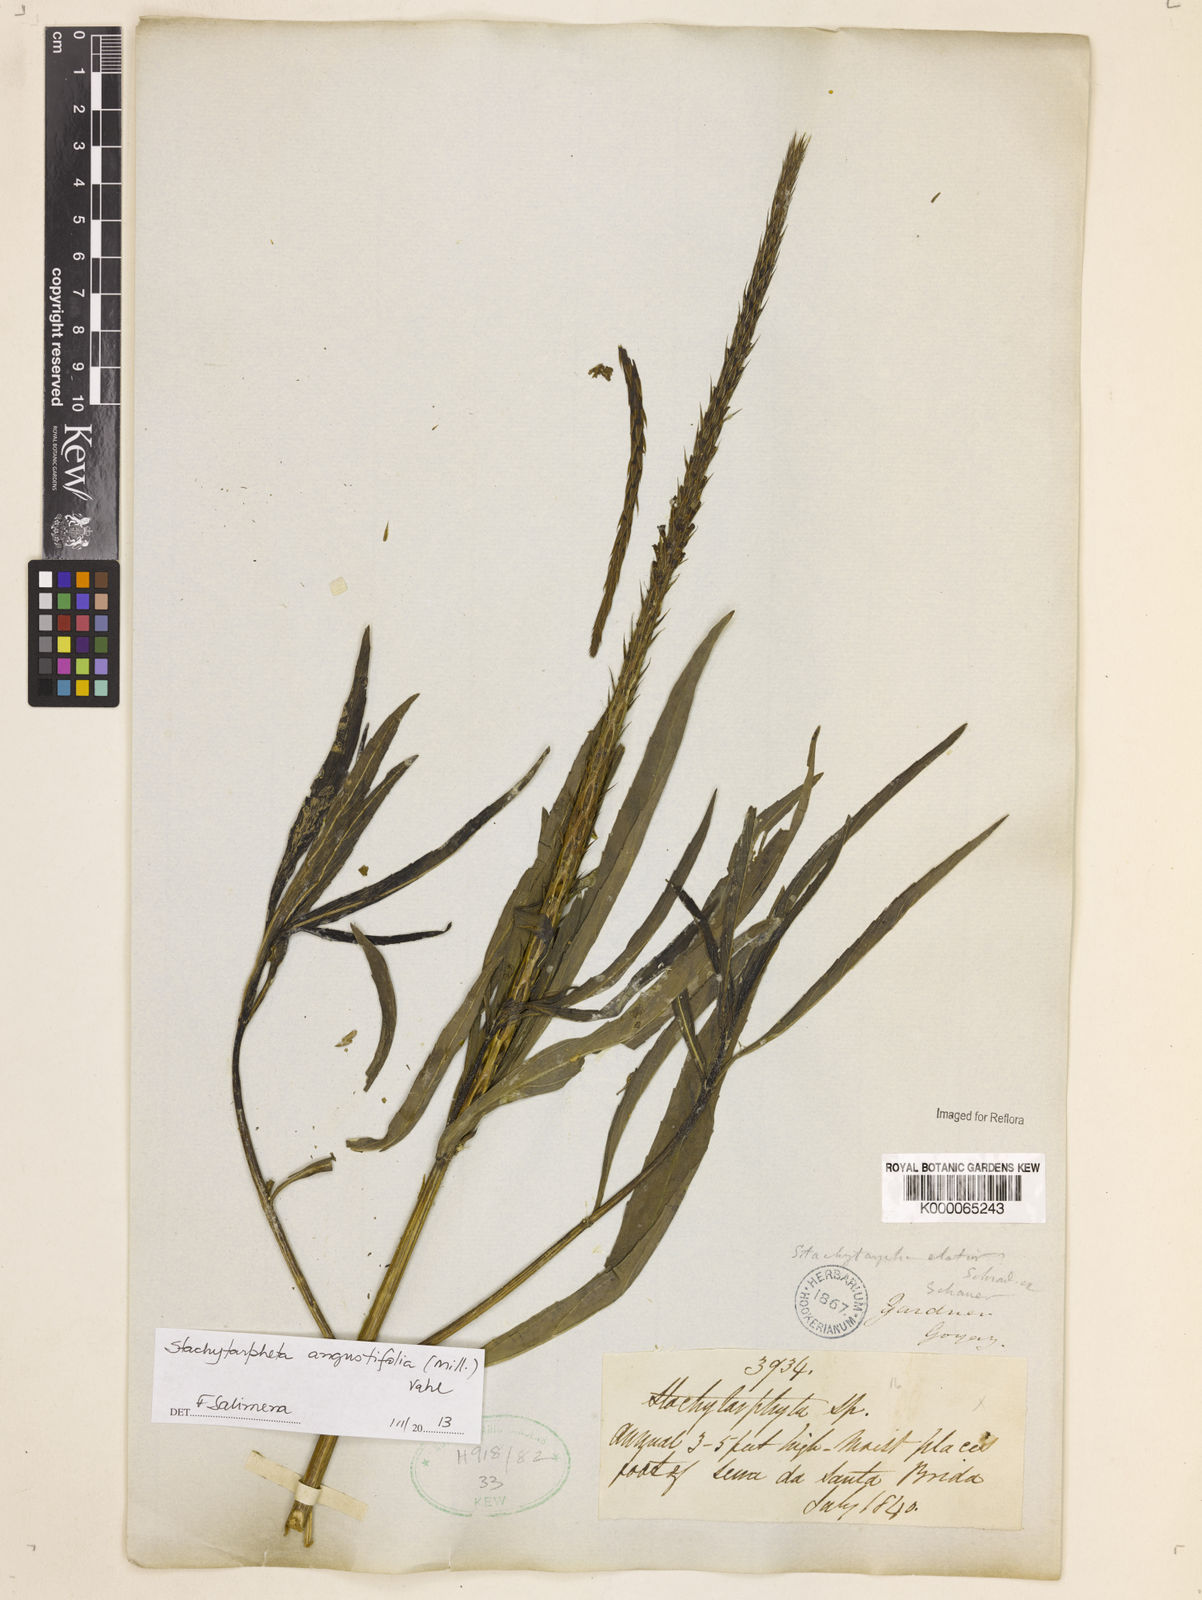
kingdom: Plantae
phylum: Tracheophyta
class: Magnoliopsida
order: Lamiales
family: Verbenaceae
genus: Stachytarpheta
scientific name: Stachytarpheta indica
